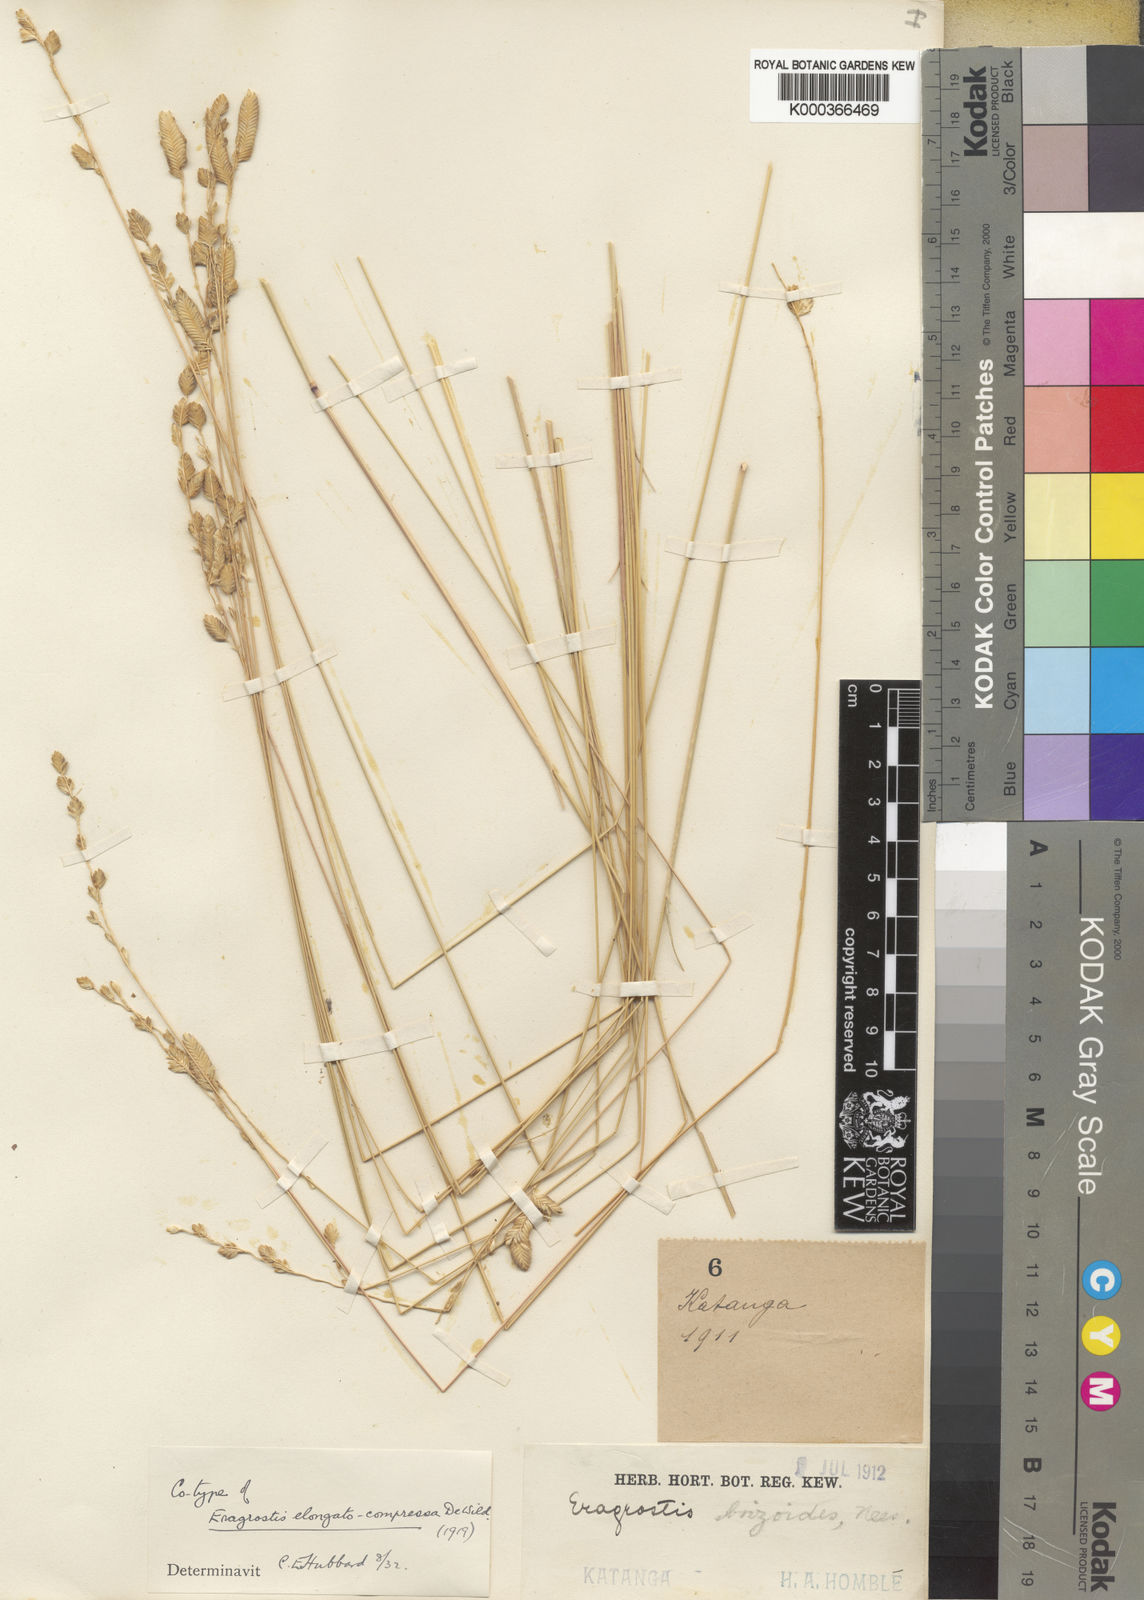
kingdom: Plantae
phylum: Tracheophyta
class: Liliopsida
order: Poales
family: Poaceae
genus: Eragrostis
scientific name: Eragrostis capensis
